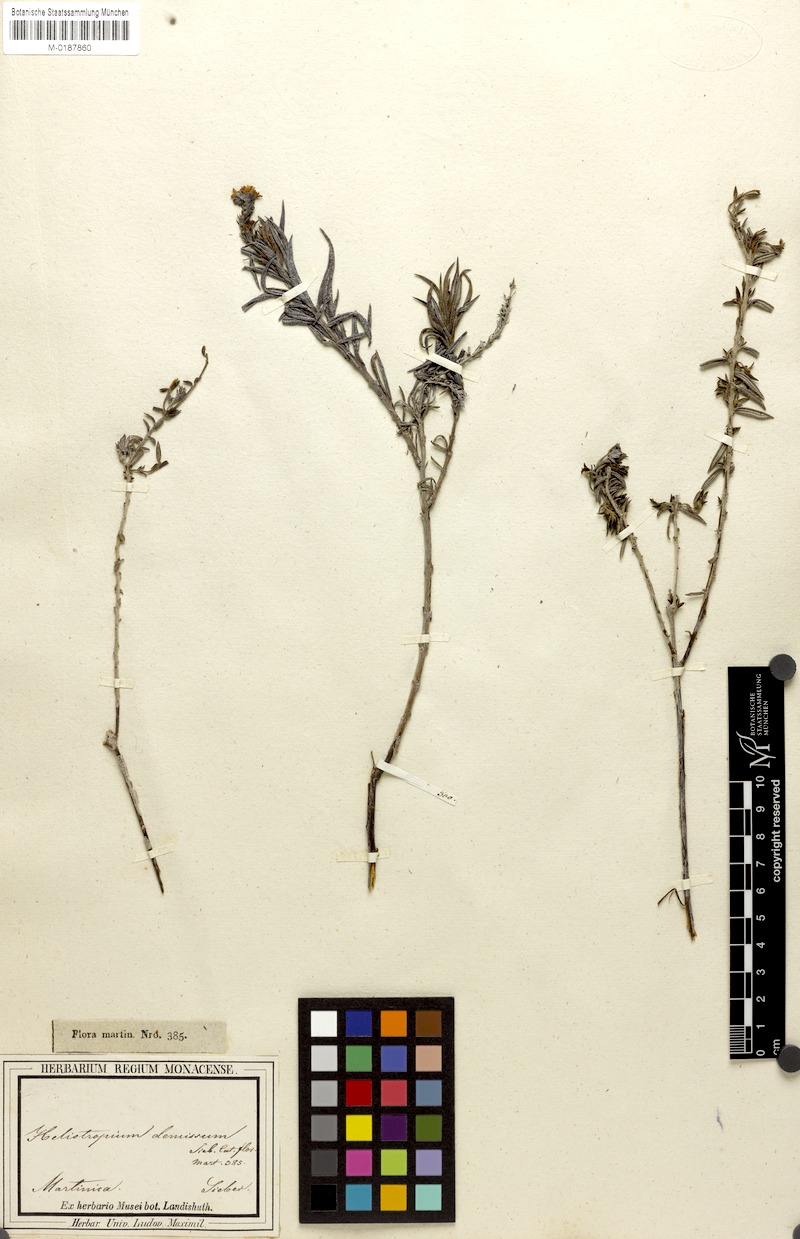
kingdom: Plantae
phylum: Tracheophyta
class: Magnoliopsida
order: Boraginales
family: Heliotropiaceae
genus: Euploca
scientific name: Euploca fruticosa
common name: Key west heliotrope
